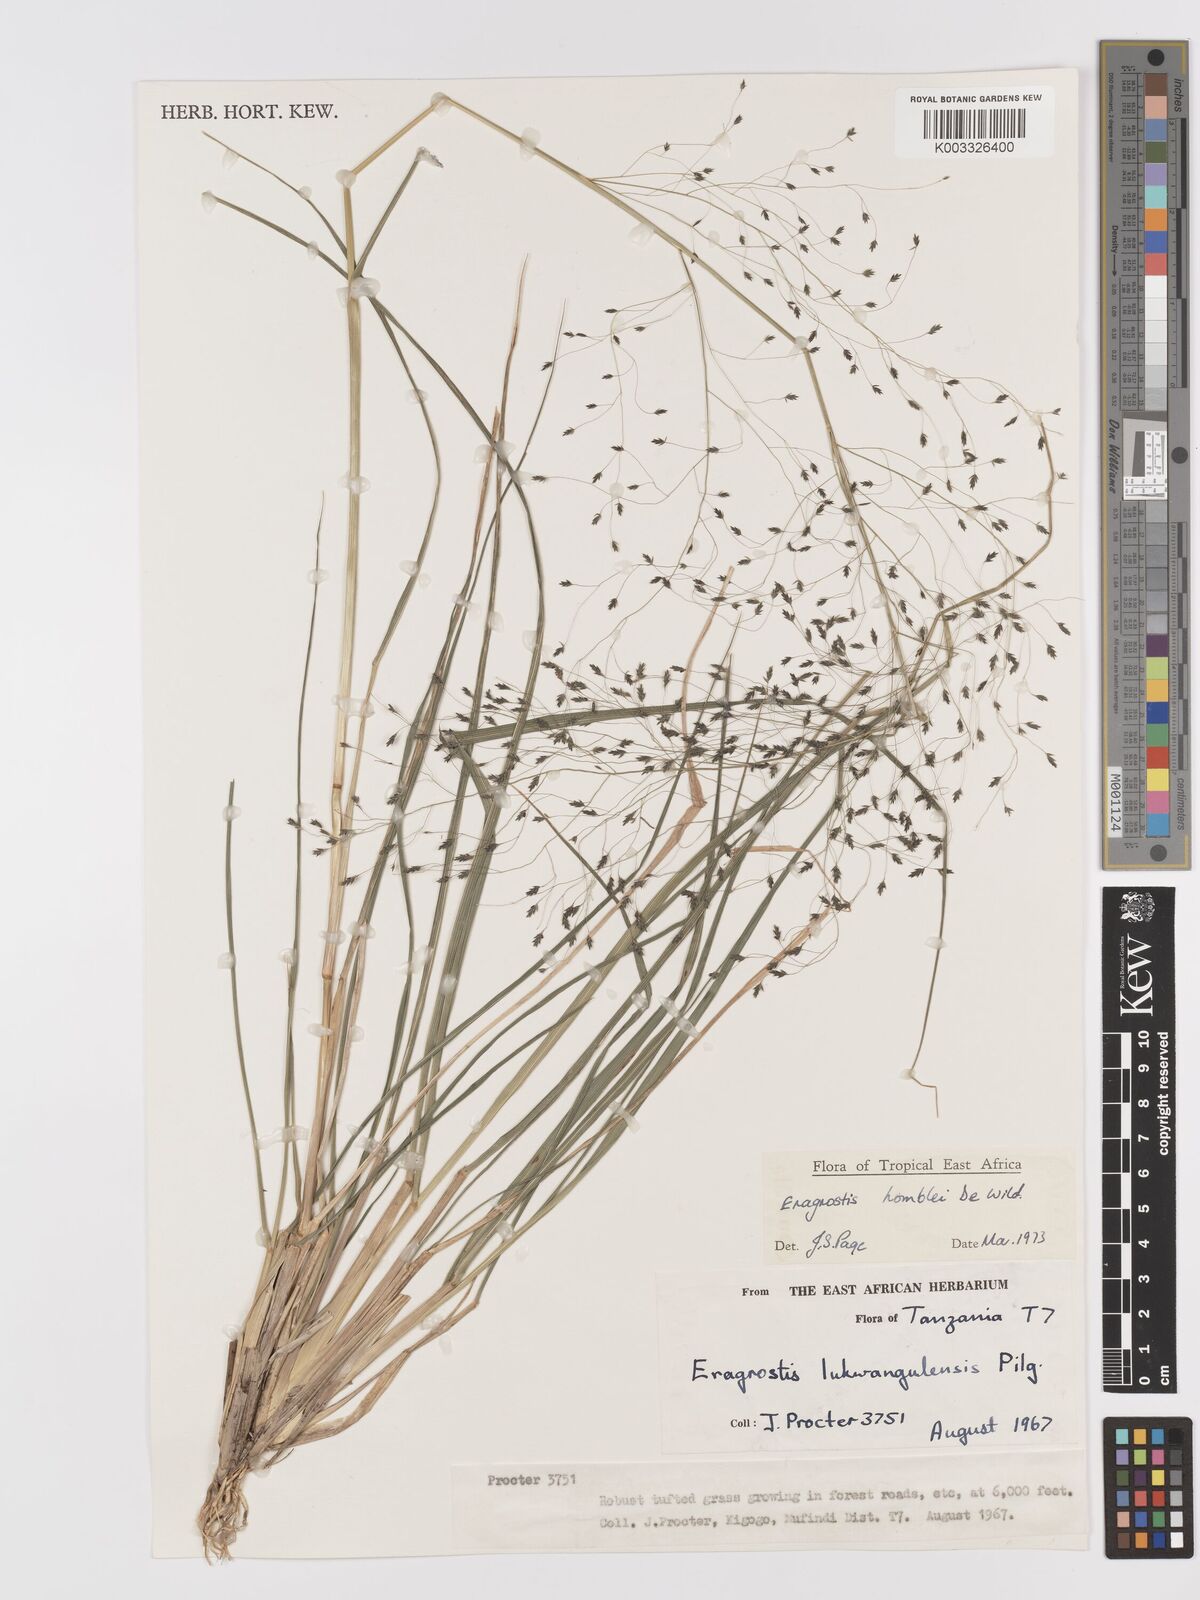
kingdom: Plantae
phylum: Tracheophyta
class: Liliopsida
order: Poales
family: Poaceae
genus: Eragrostis
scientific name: Eragrostis homblei
